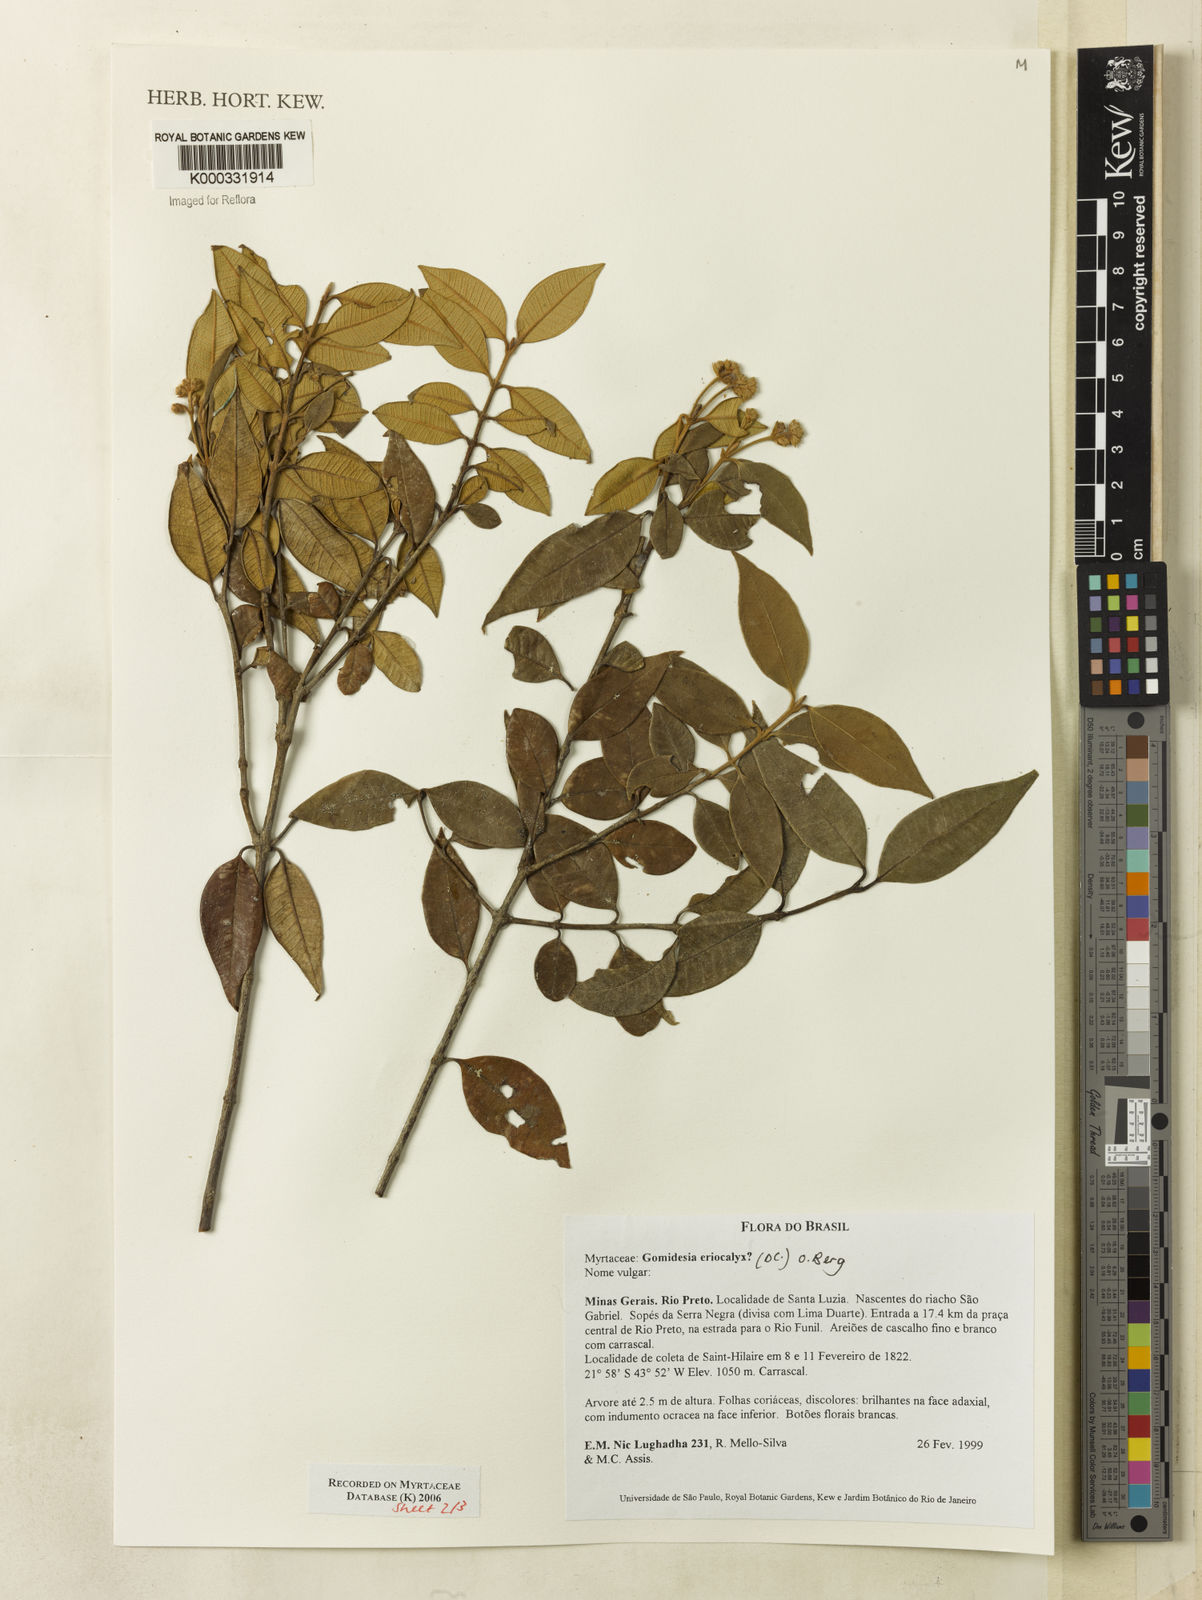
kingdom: Plantae
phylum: Tracheophyta
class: Magnoliopsida
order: Myrtales
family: Myrtaceae
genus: Myrcia
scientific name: Myrcia eriocalyx
